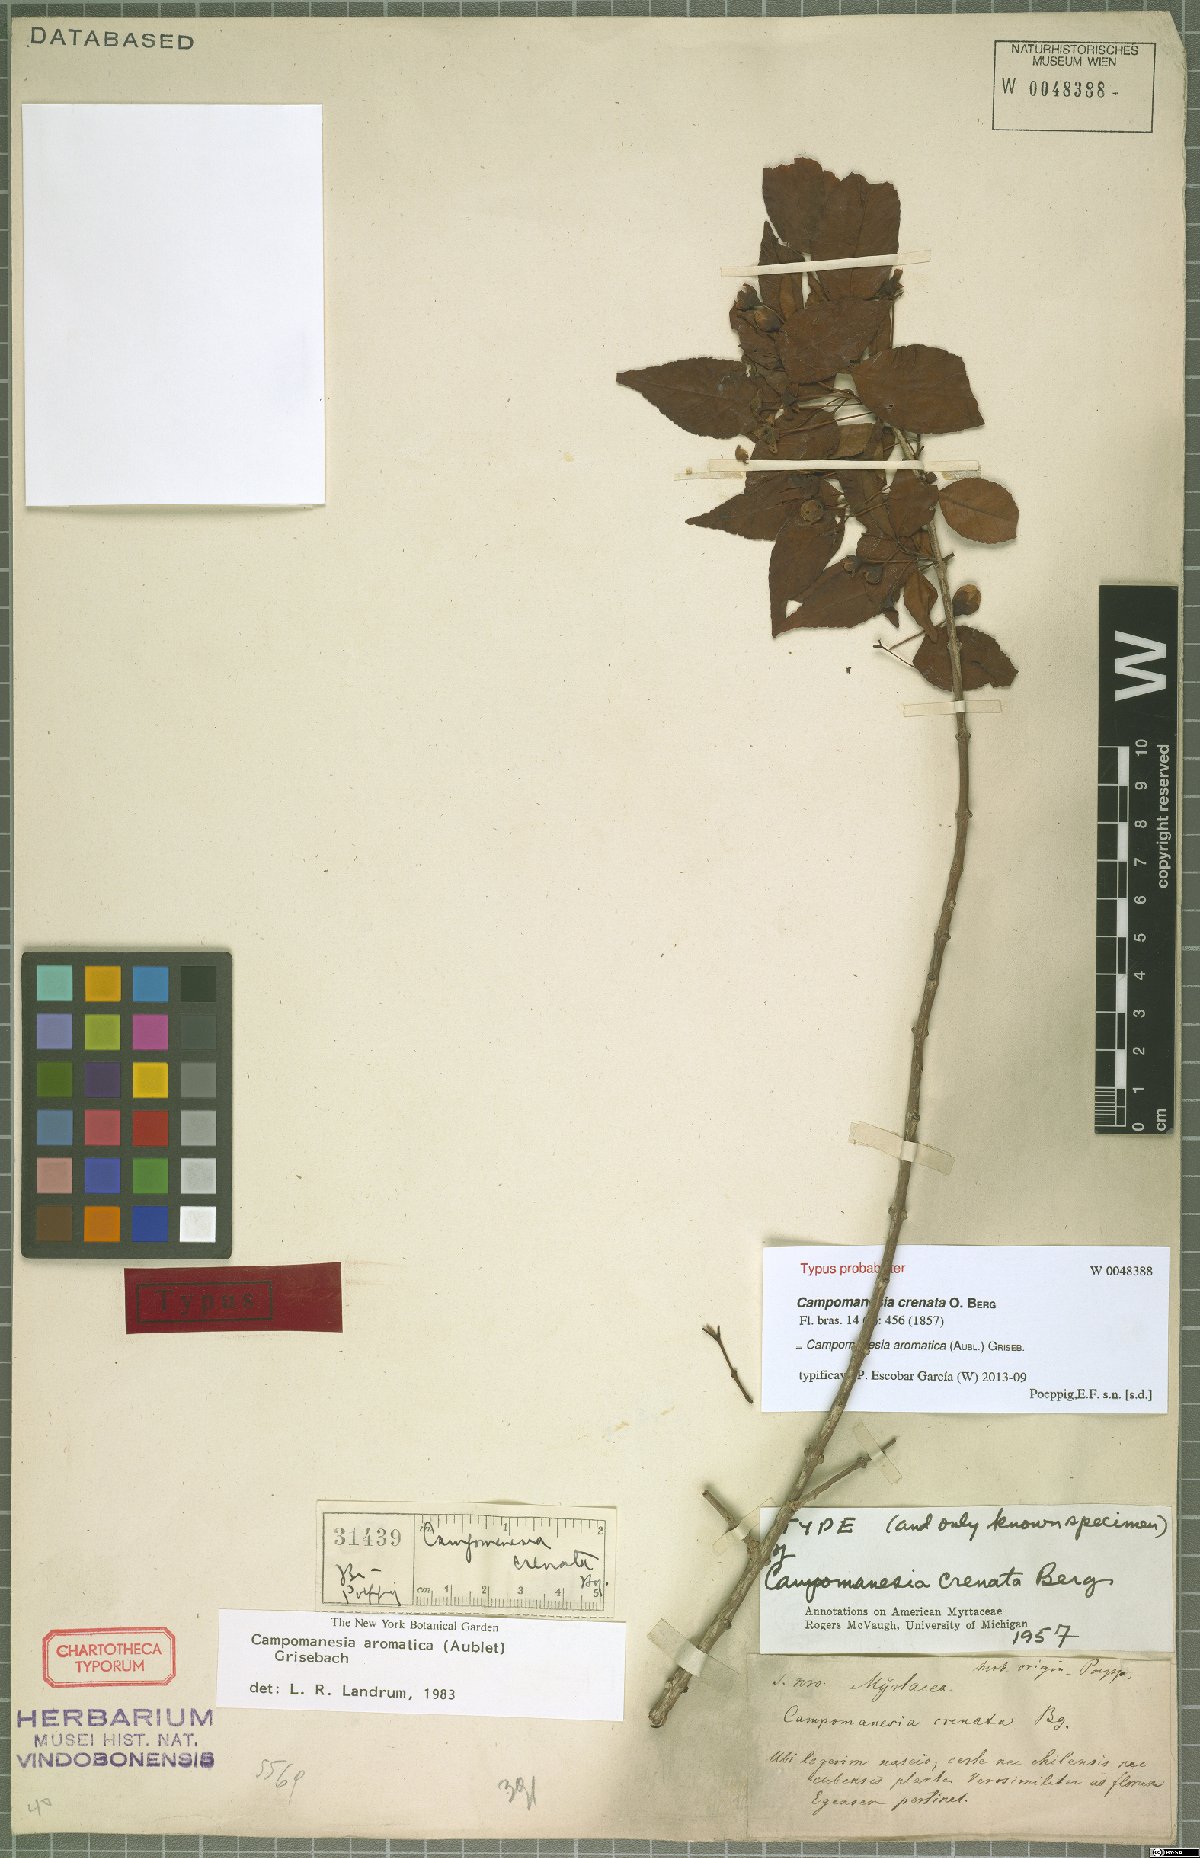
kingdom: Plantae
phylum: Tracheophyta
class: Magnoliopsida
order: Myrtales
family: Myrtaceae
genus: Campomanesia
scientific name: Campomanesia aromatica
